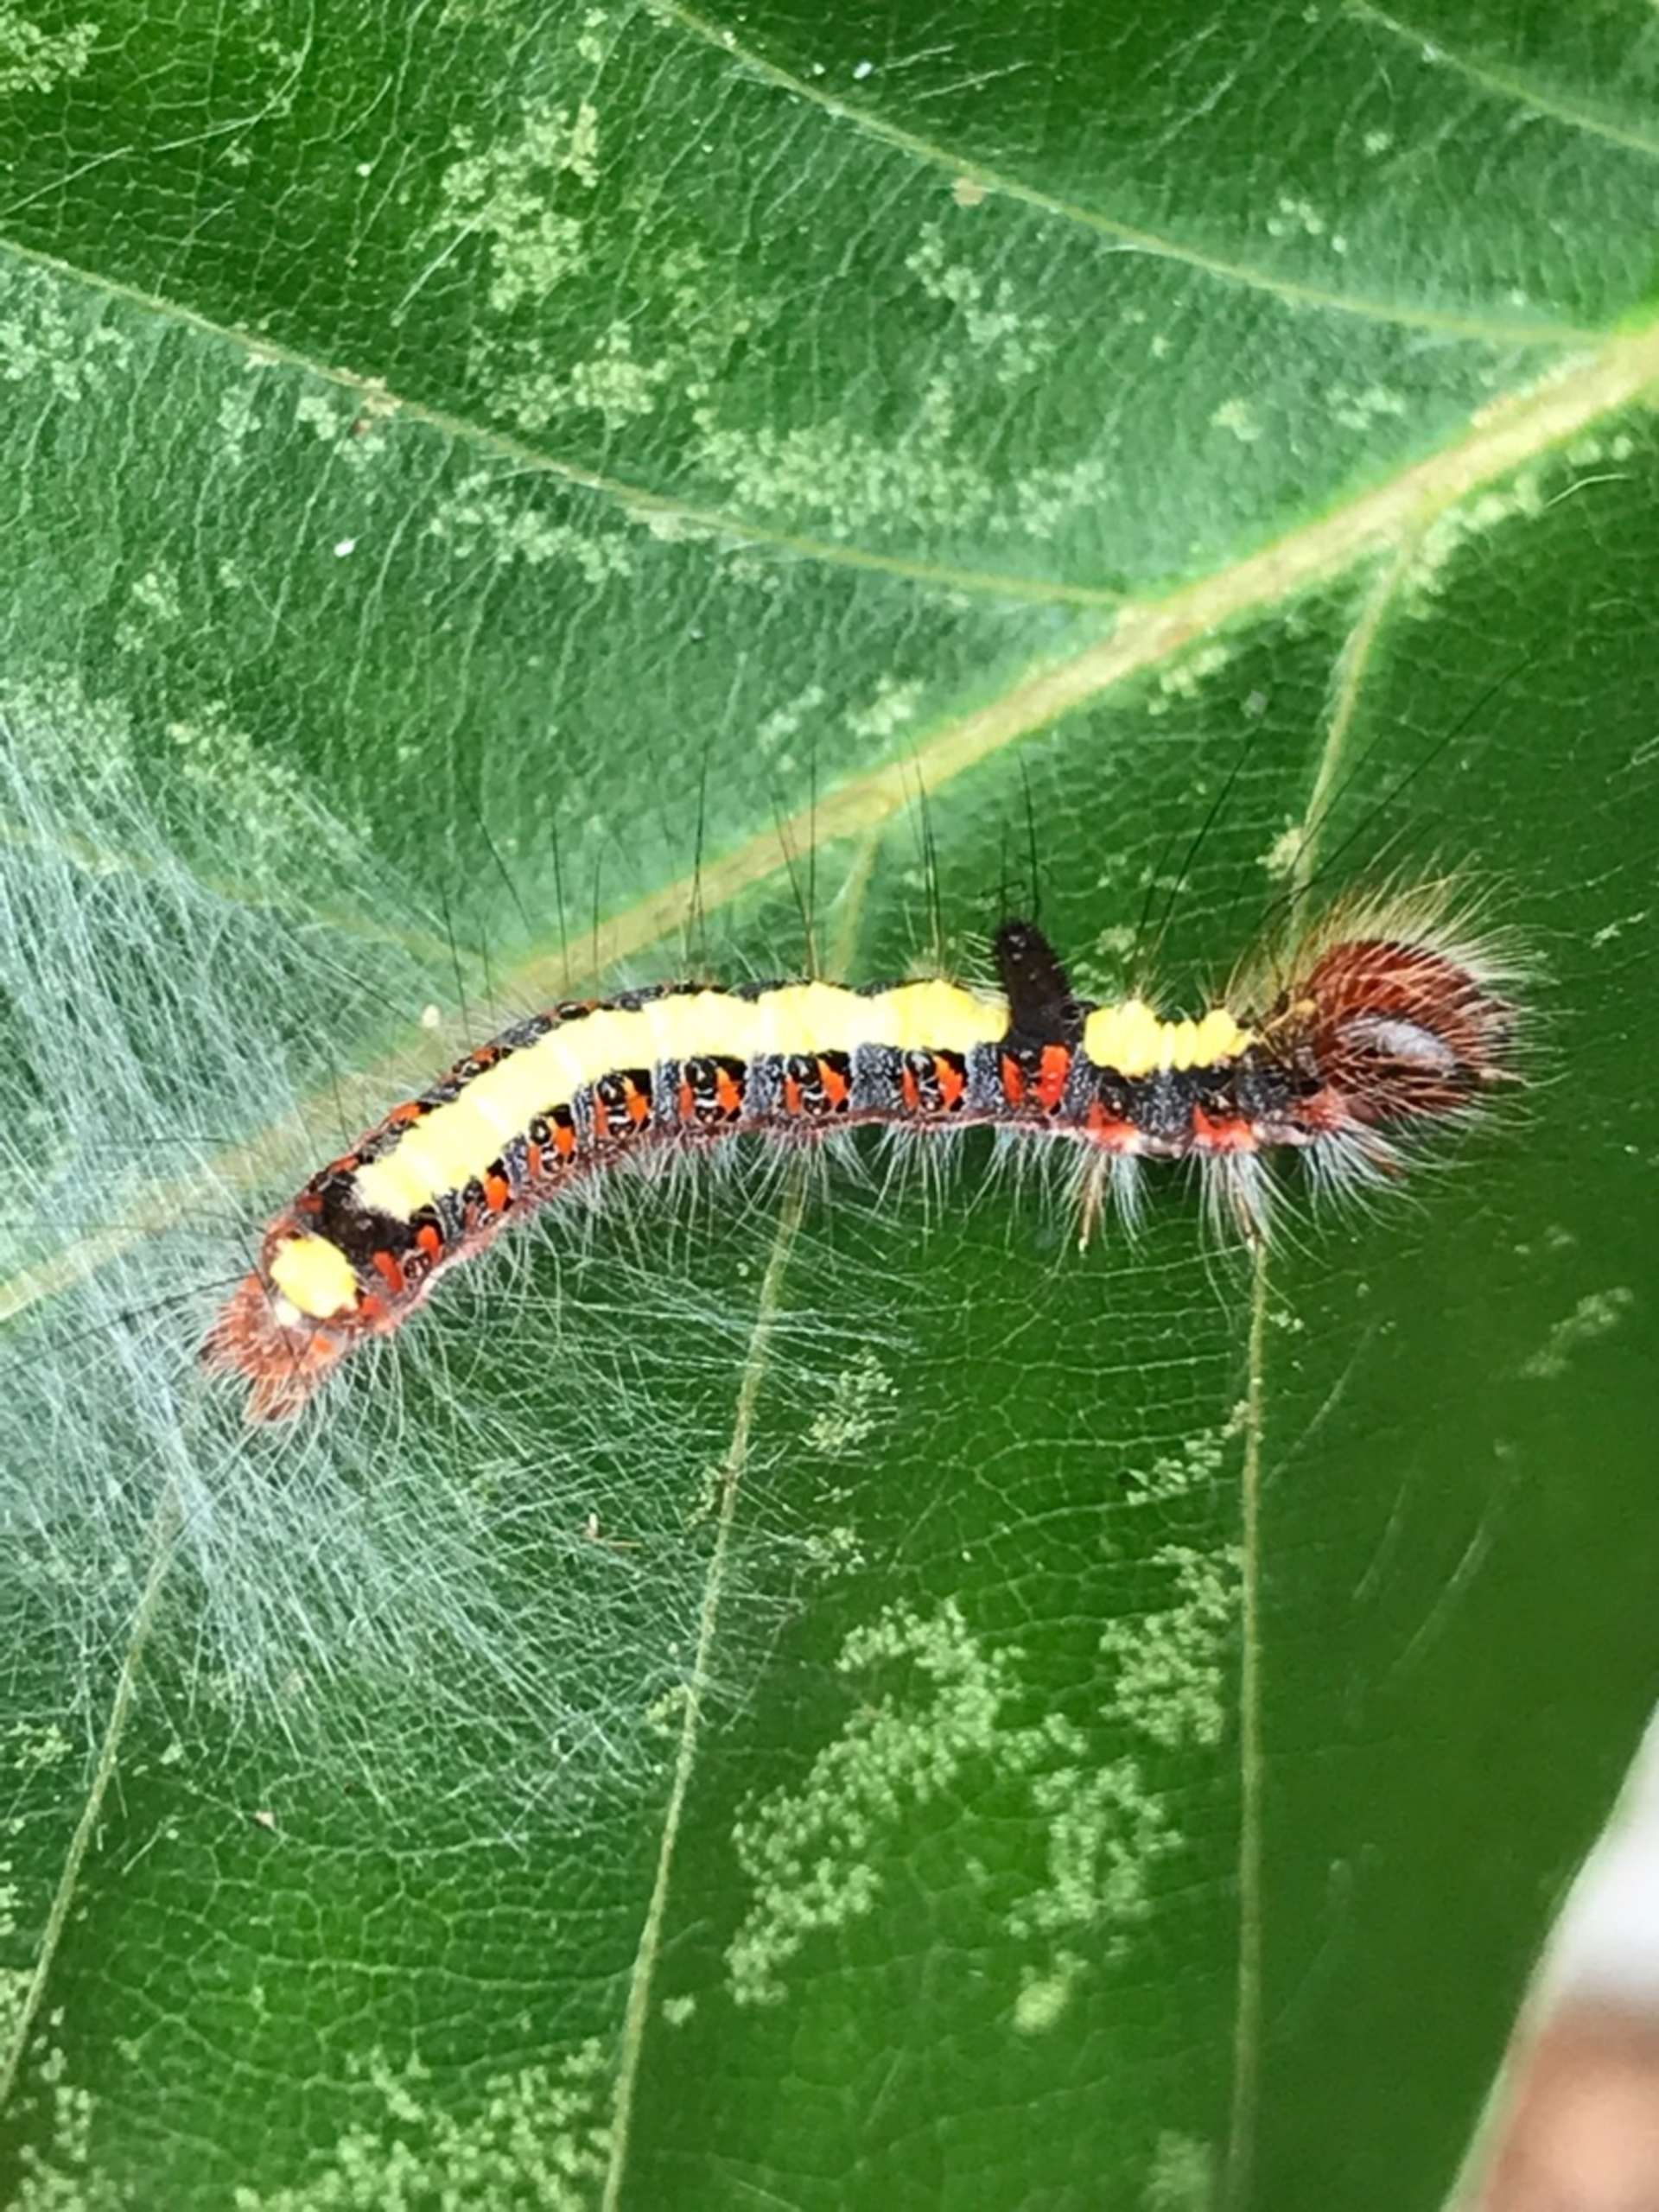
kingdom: Animalia
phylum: Arthropoda
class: Insecta
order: Lepidoptera
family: Noctuidae
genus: Acronicta
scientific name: Acronicta psi
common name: Psi-ugle
